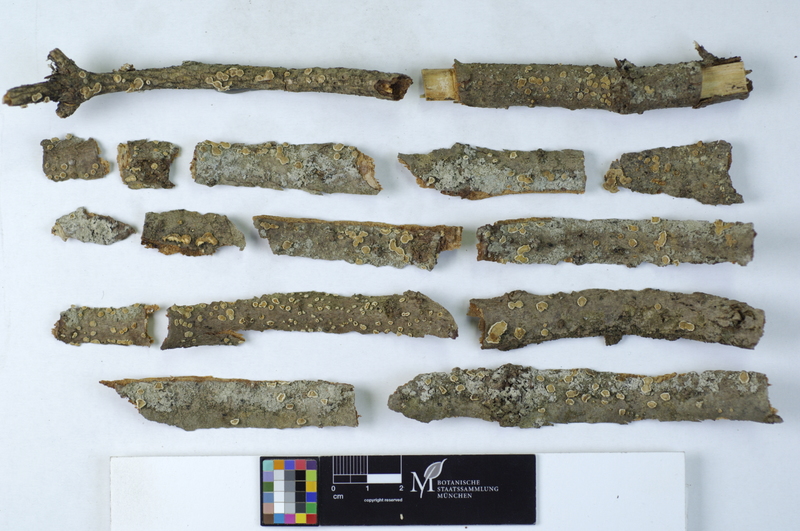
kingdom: Fungi
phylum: Basidiomycota
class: Agaricomycetes
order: Russulales
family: Stereaceae
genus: Aleurodiscus
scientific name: Aleurodiscus amorphus
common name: Orange discus
